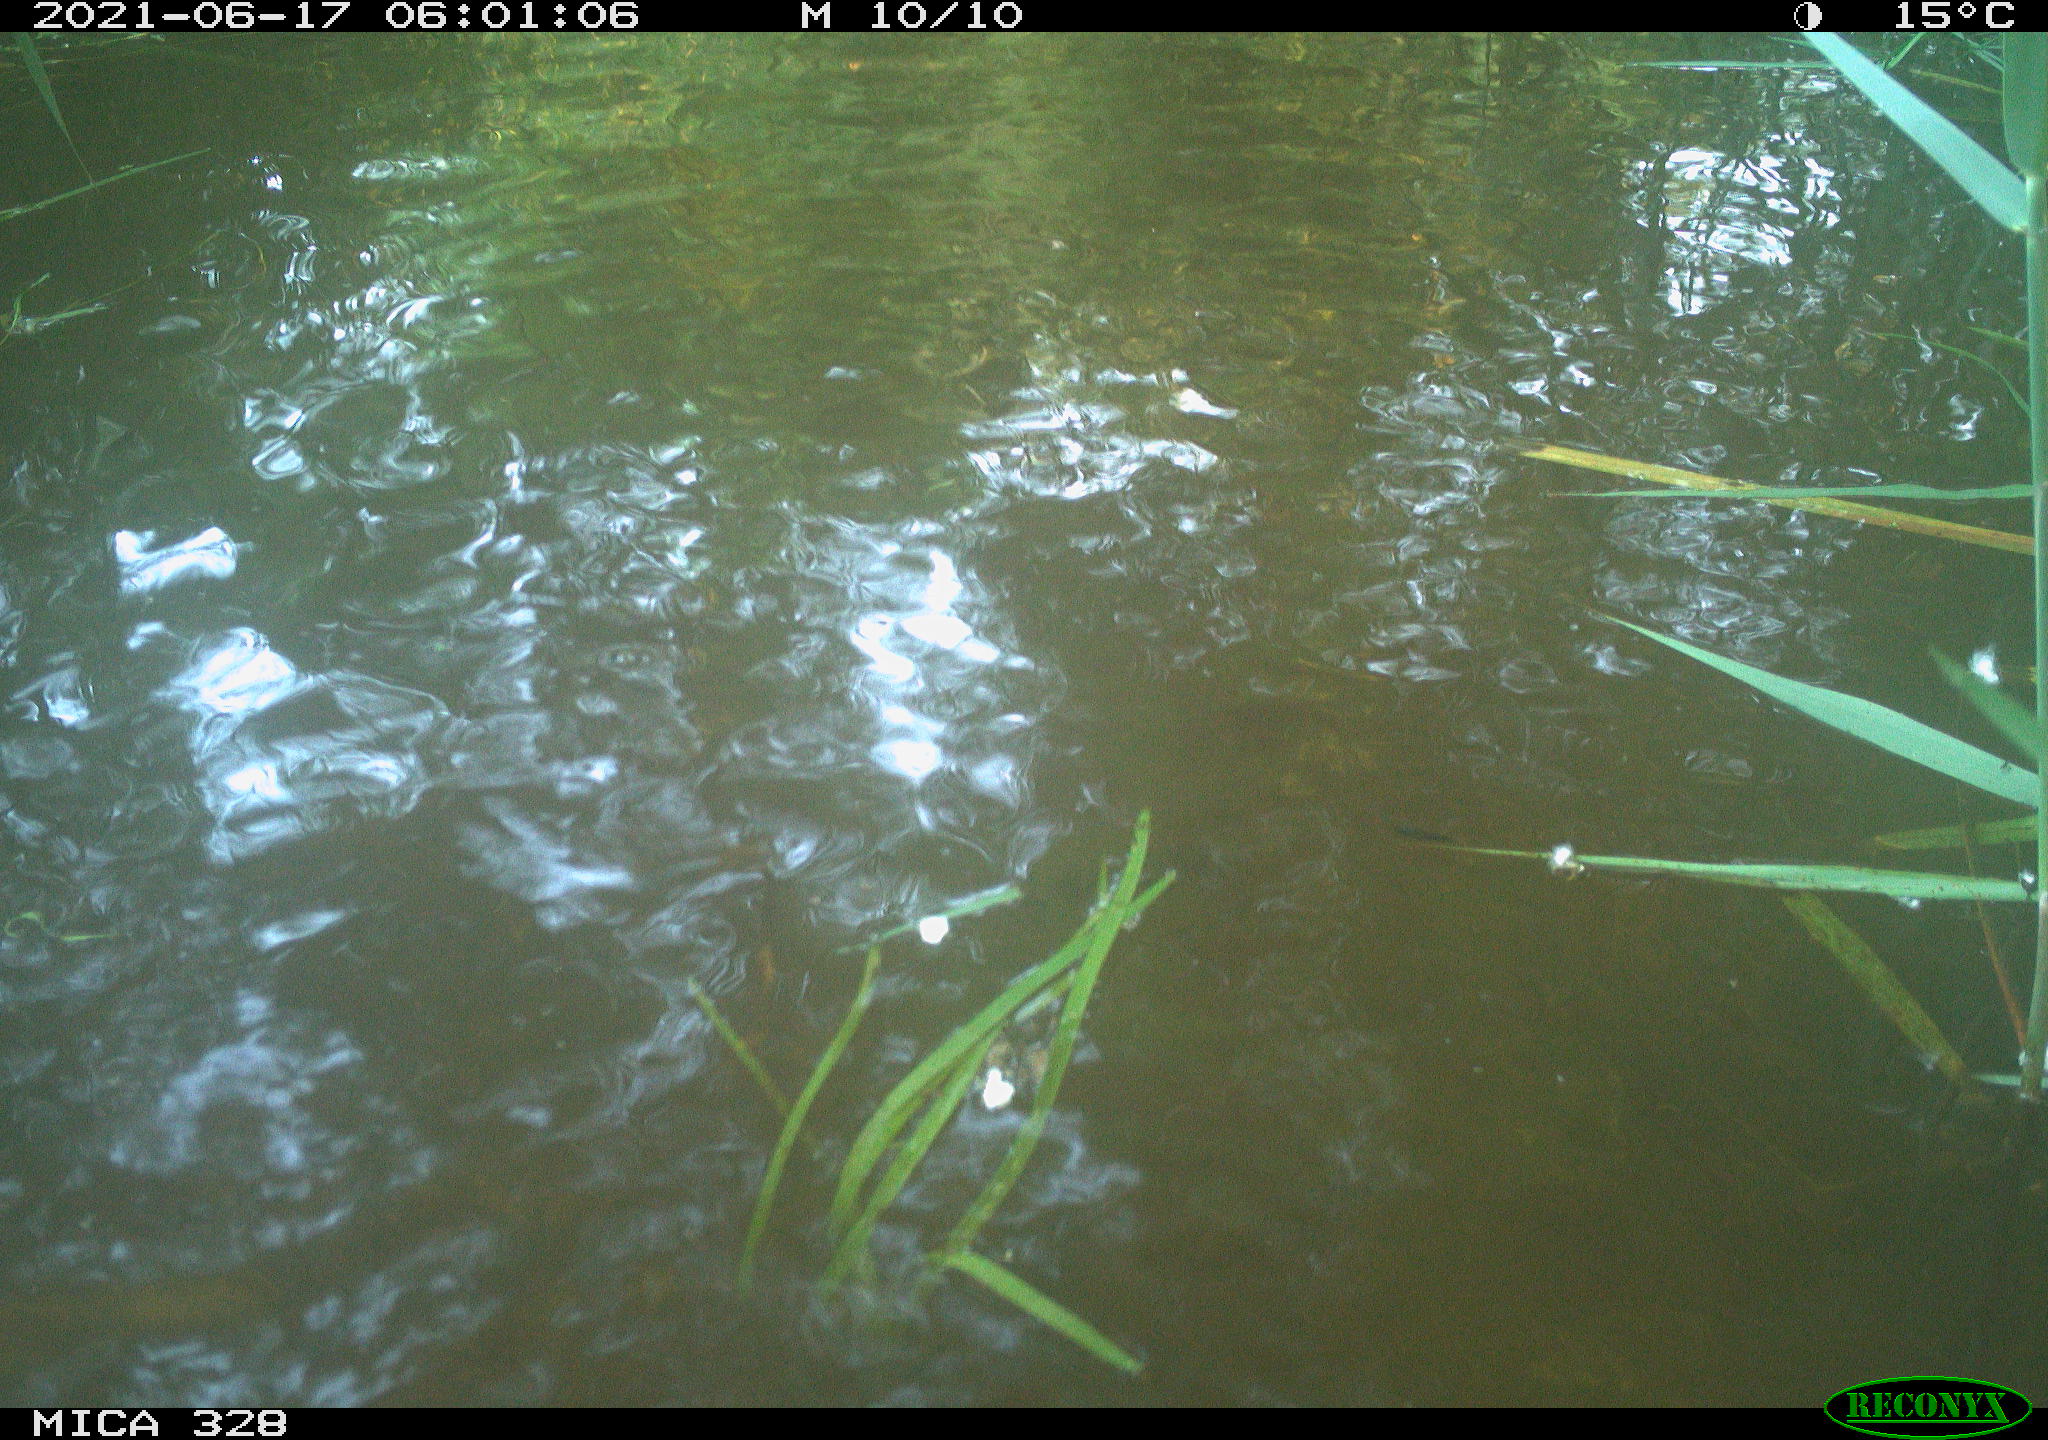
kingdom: Animalia
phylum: Chordata
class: Aves
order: Anseriformes
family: Anatidae
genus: Aix
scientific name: Aix galericulata
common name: Mandarin duck
